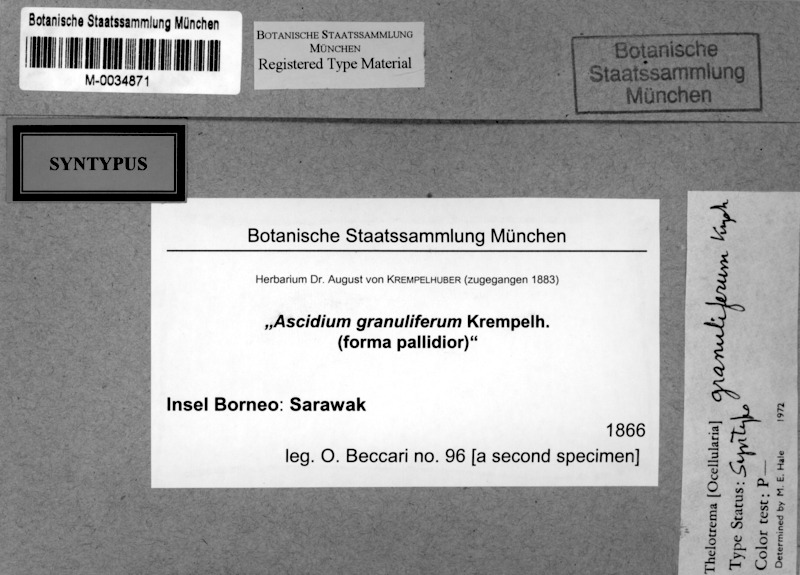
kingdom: Fungi
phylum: Ascomycota
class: Lecanoromycetes
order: Ostropales
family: Graphidaceae
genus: Ocellularia
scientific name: Ocellularia granulifera
